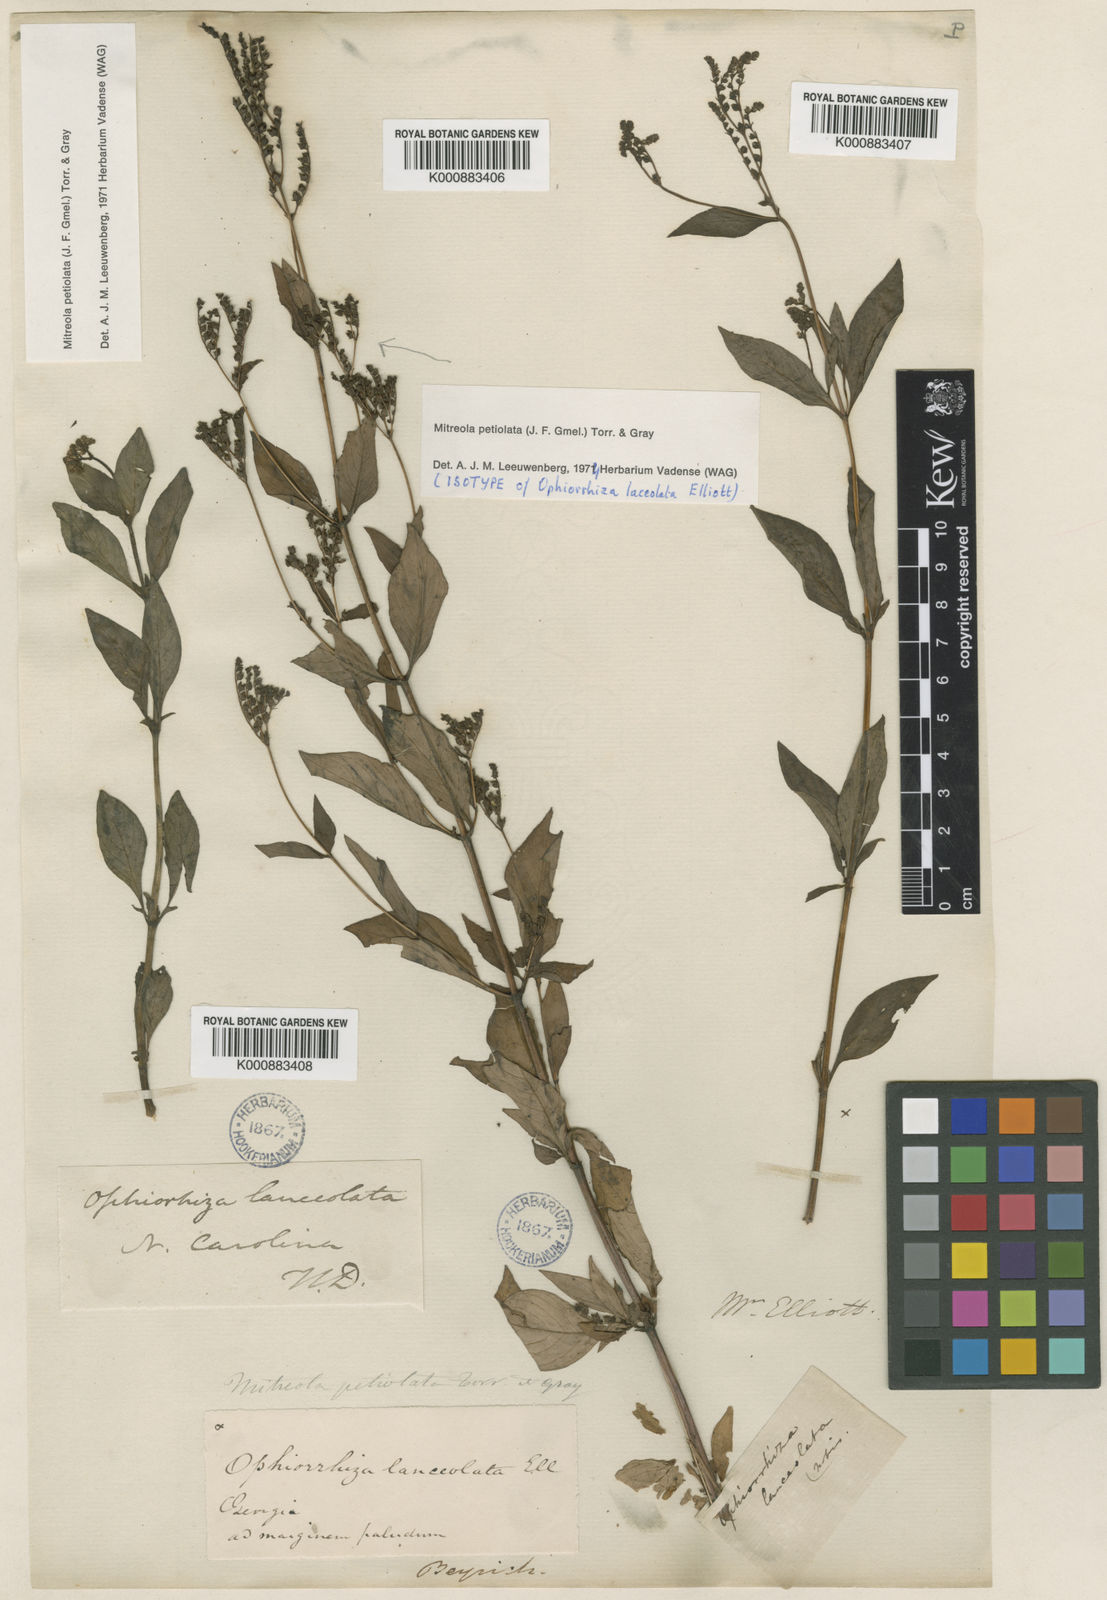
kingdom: Plantae
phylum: Tracheophyta
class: Magnoliopsida
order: Gentianales
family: Loganiaceae
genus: Mitreola
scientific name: Mitreola petiolata
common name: Lax hornpod
